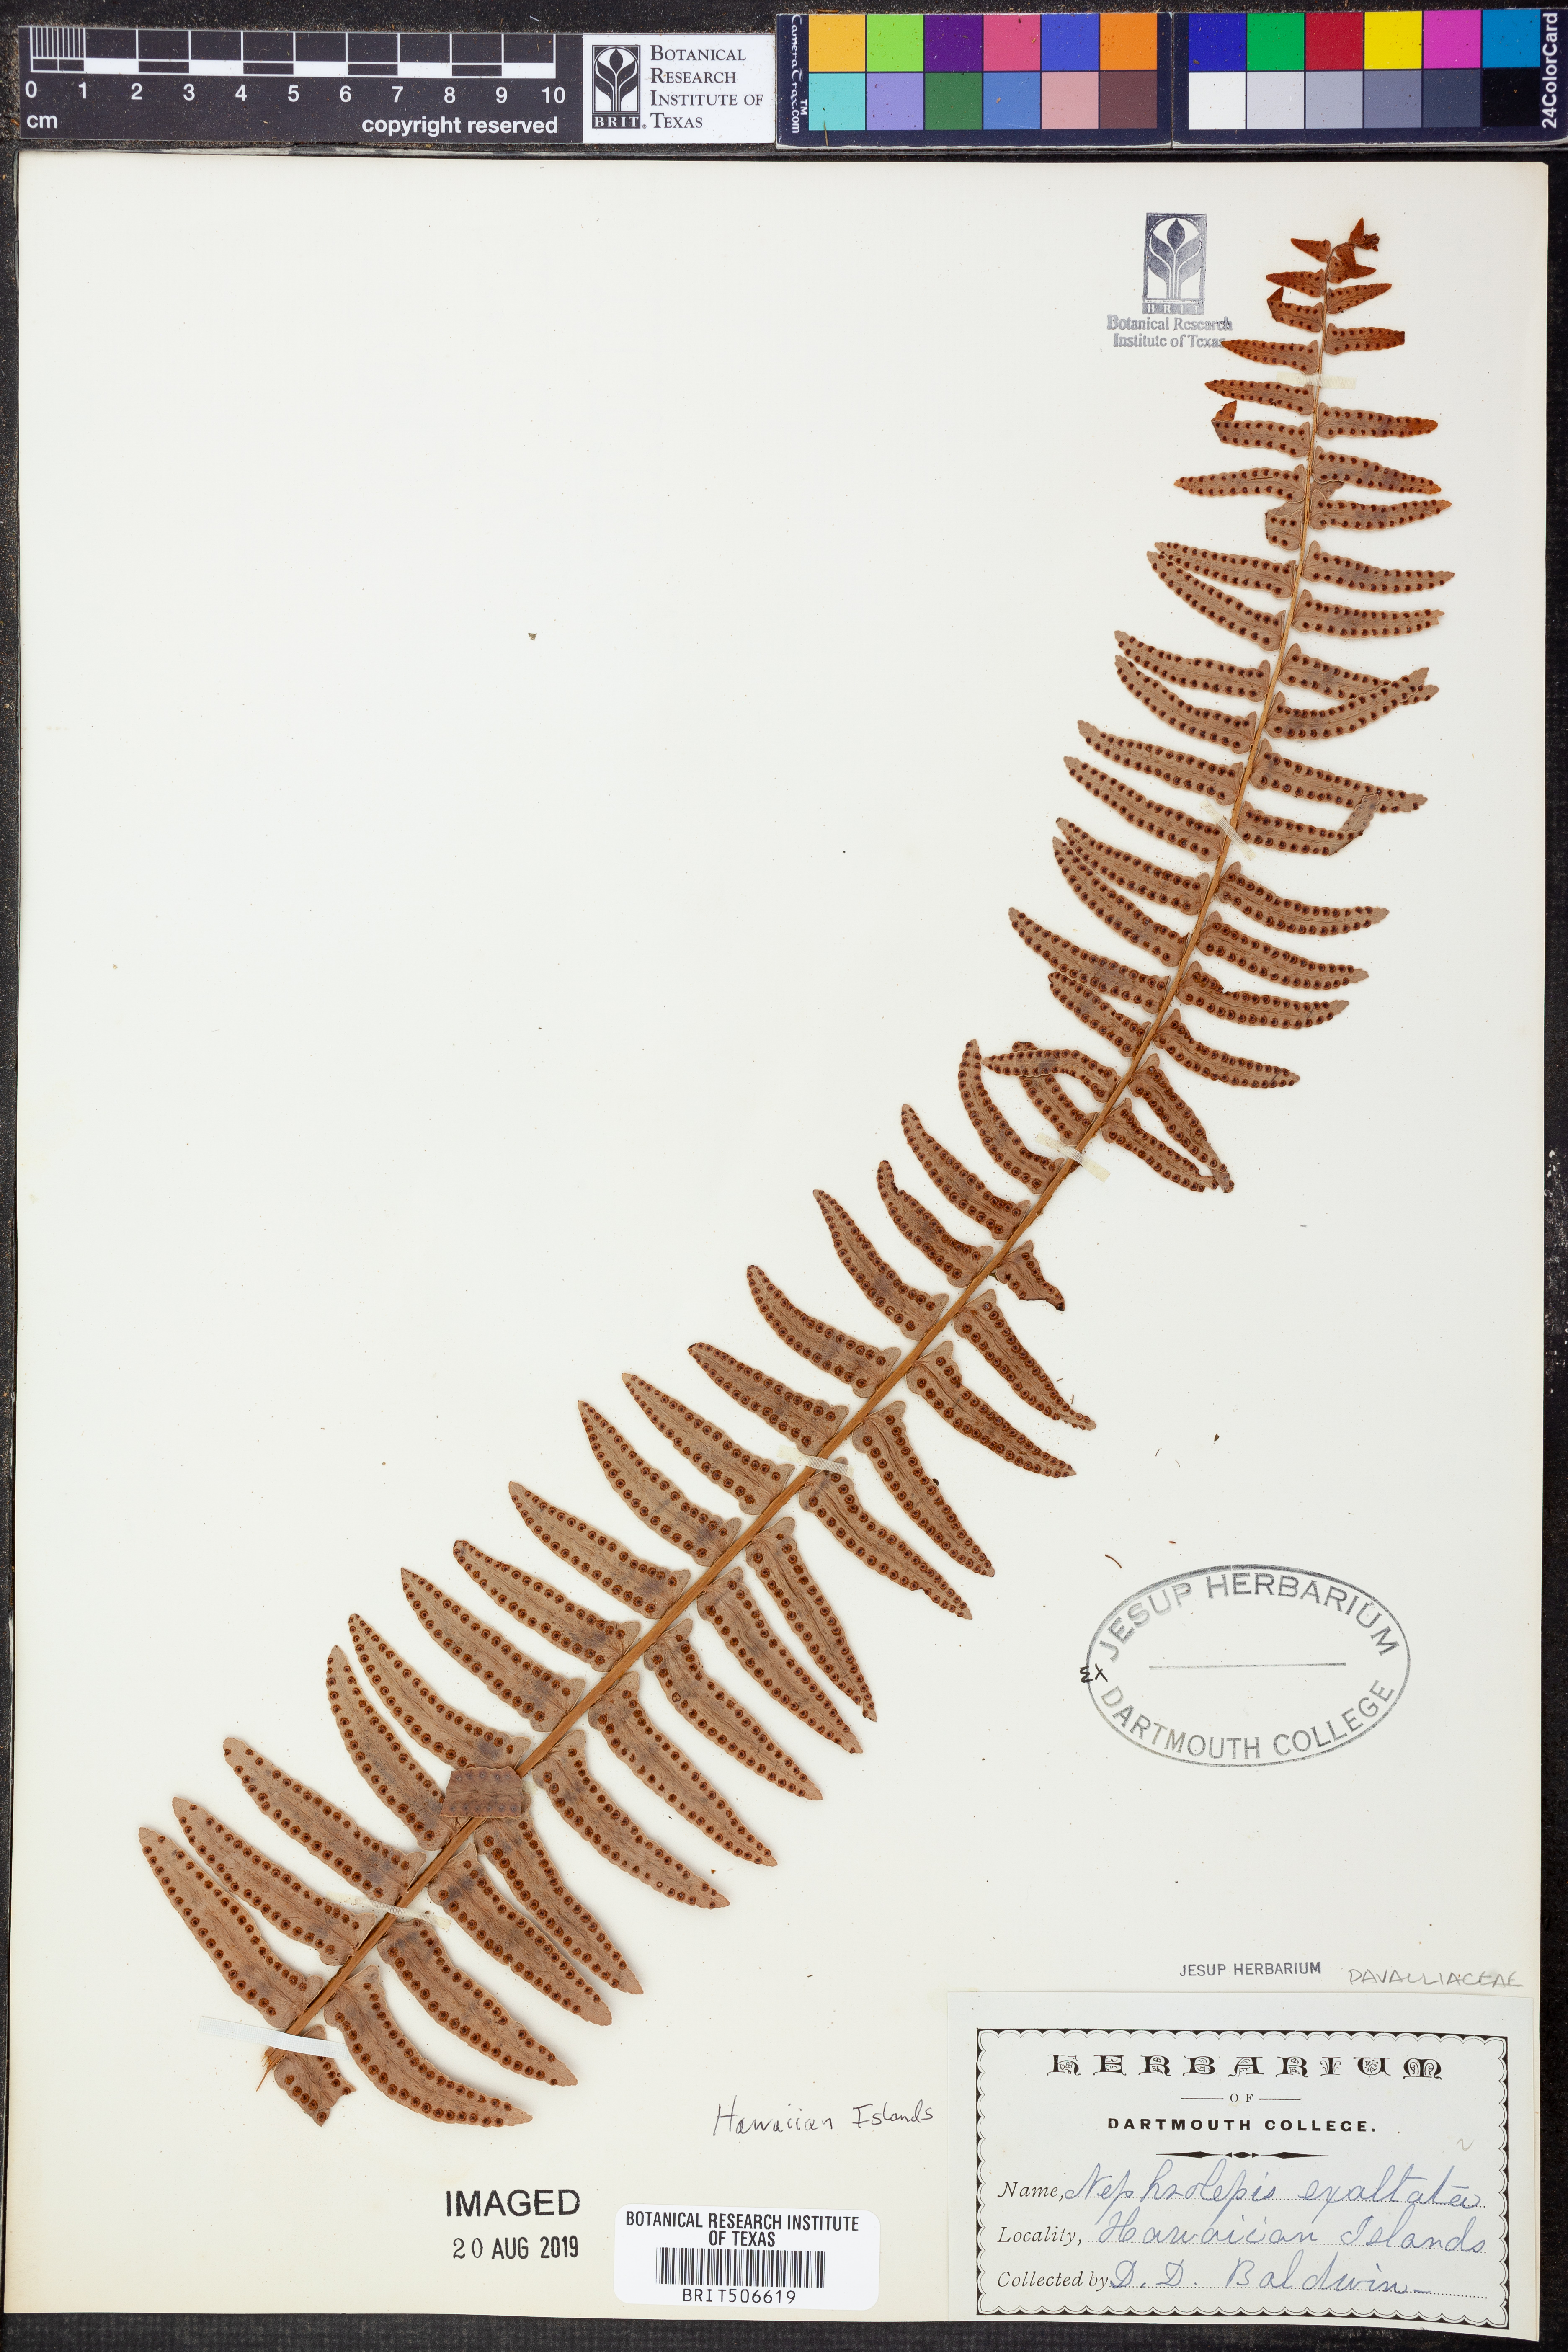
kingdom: Plantae
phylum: Tracheophyta
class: Polypodiopsida
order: Polypodiales
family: Nephrolepidaceae
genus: Nephrolepis
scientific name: Nephrolepis exaltata
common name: Sword fern
